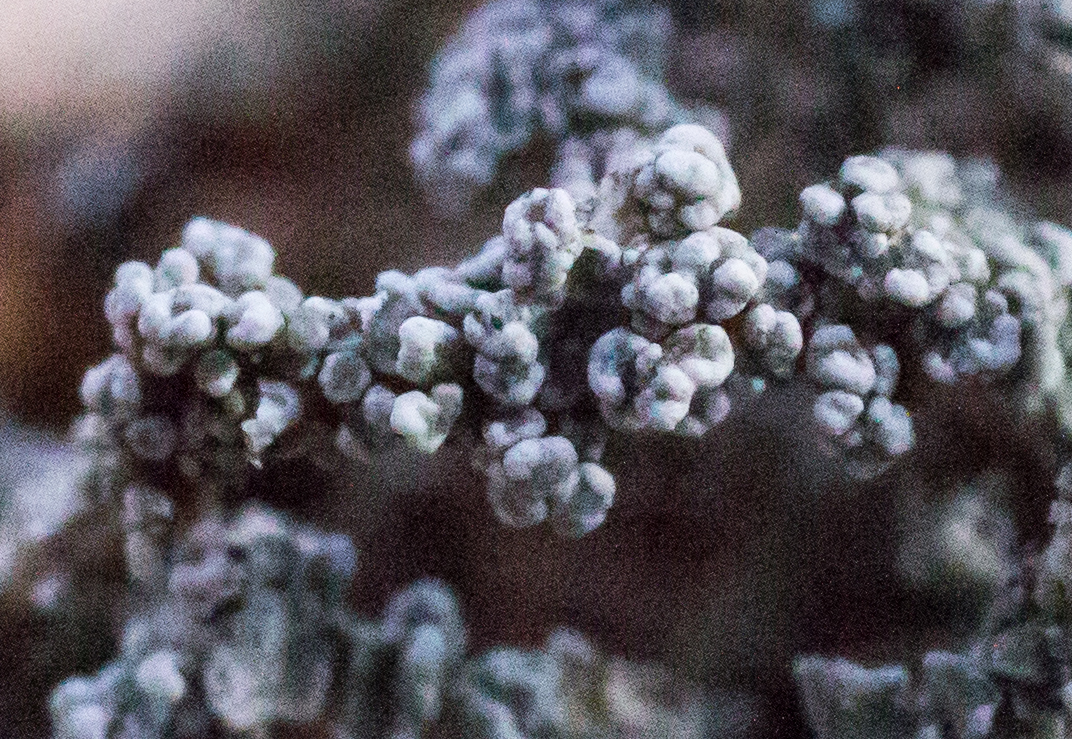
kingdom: Fungi
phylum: Ascomycota
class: Lecanoromycetes
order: Lecanorales
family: Stereocaulaceae
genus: Stereocaulon
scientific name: Stereocaulon vesuvianum
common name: skjold-korallav
